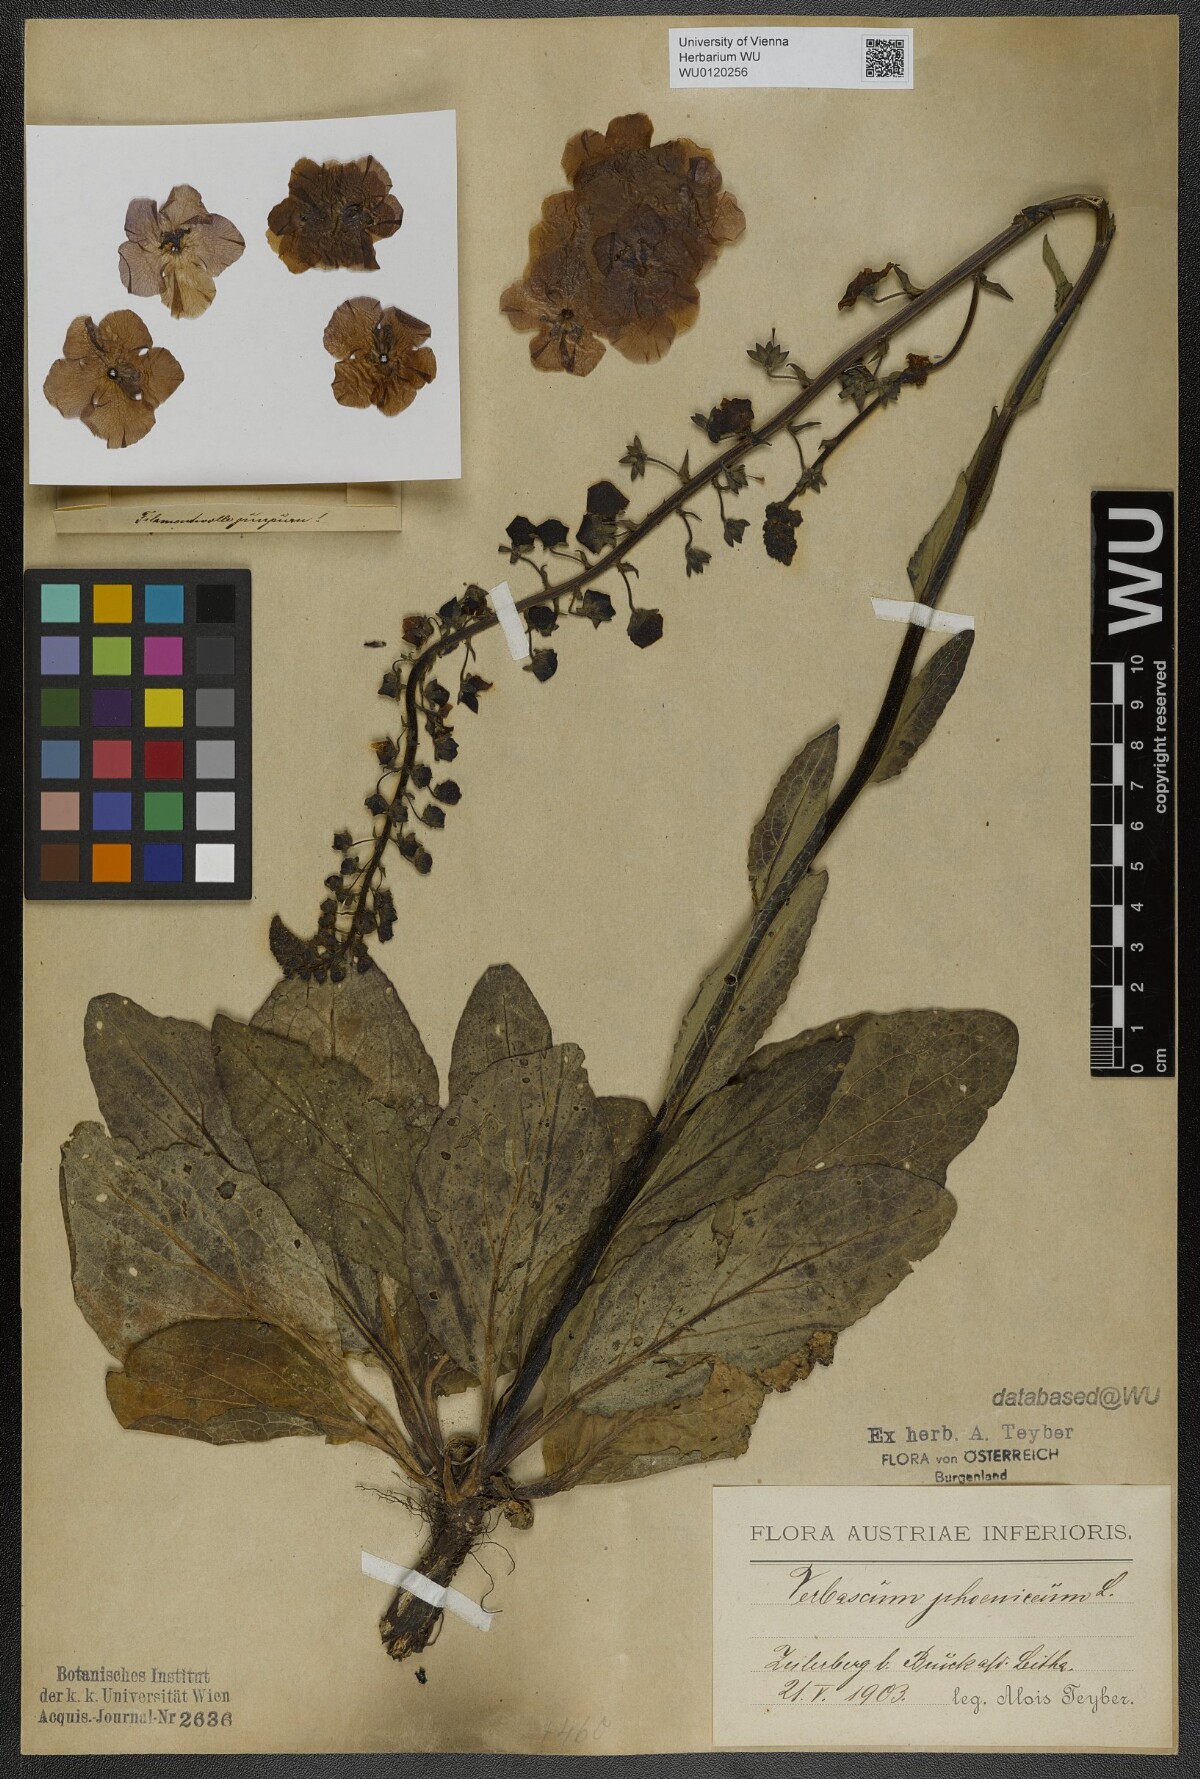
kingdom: Plantae
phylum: Tracheophyta
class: Magnoliopsida
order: Lamiales
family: Scrophulariaceae
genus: Verbascum
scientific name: Verbascum phoeniceum
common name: Purple mullein
